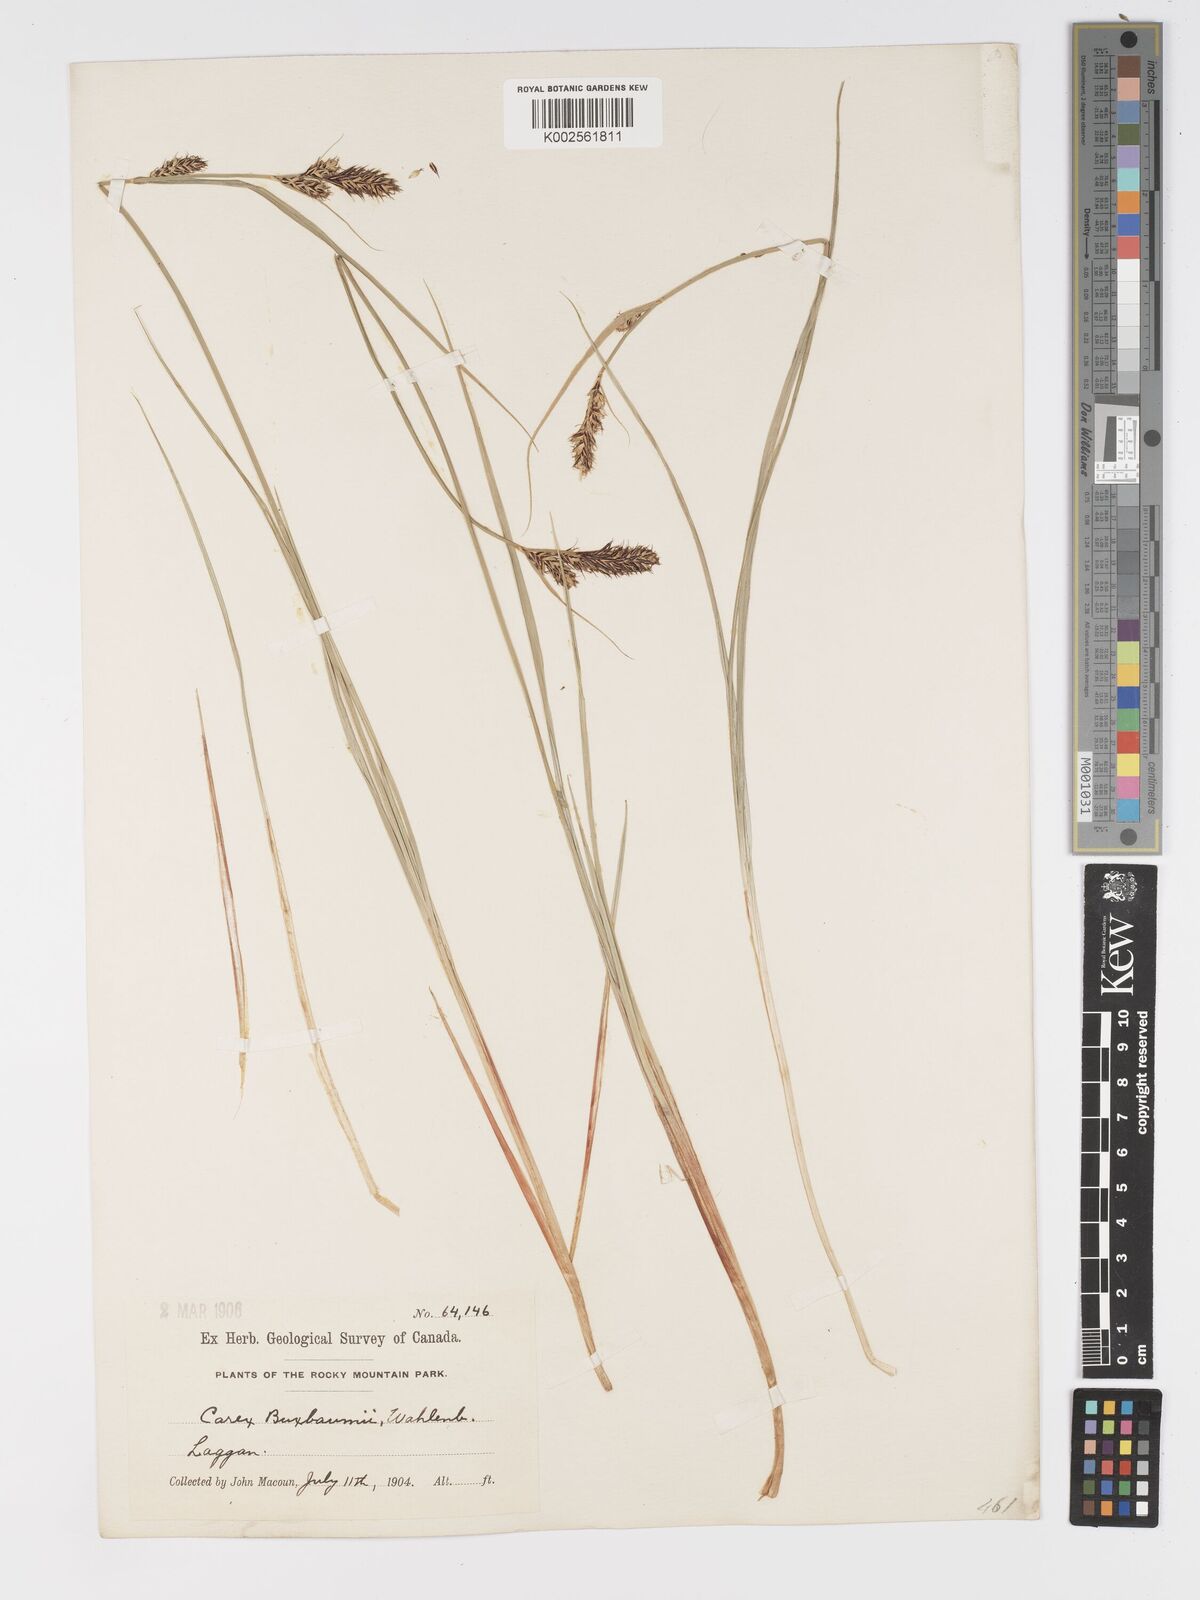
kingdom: Plantae
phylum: Tracheophyta
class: Liliopsida
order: Poales
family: Cyperaceae
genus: Carex
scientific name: Carex buxbaumii
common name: Club sedge
